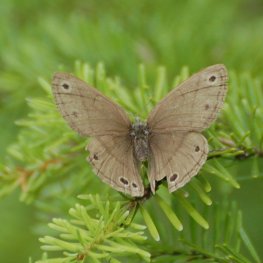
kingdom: Animalia
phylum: Arthropoda
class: Insecta
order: Lepidoptera
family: Nymphalidae
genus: Euptychia
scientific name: Euptychia cymela
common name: Little Wood Satyr
